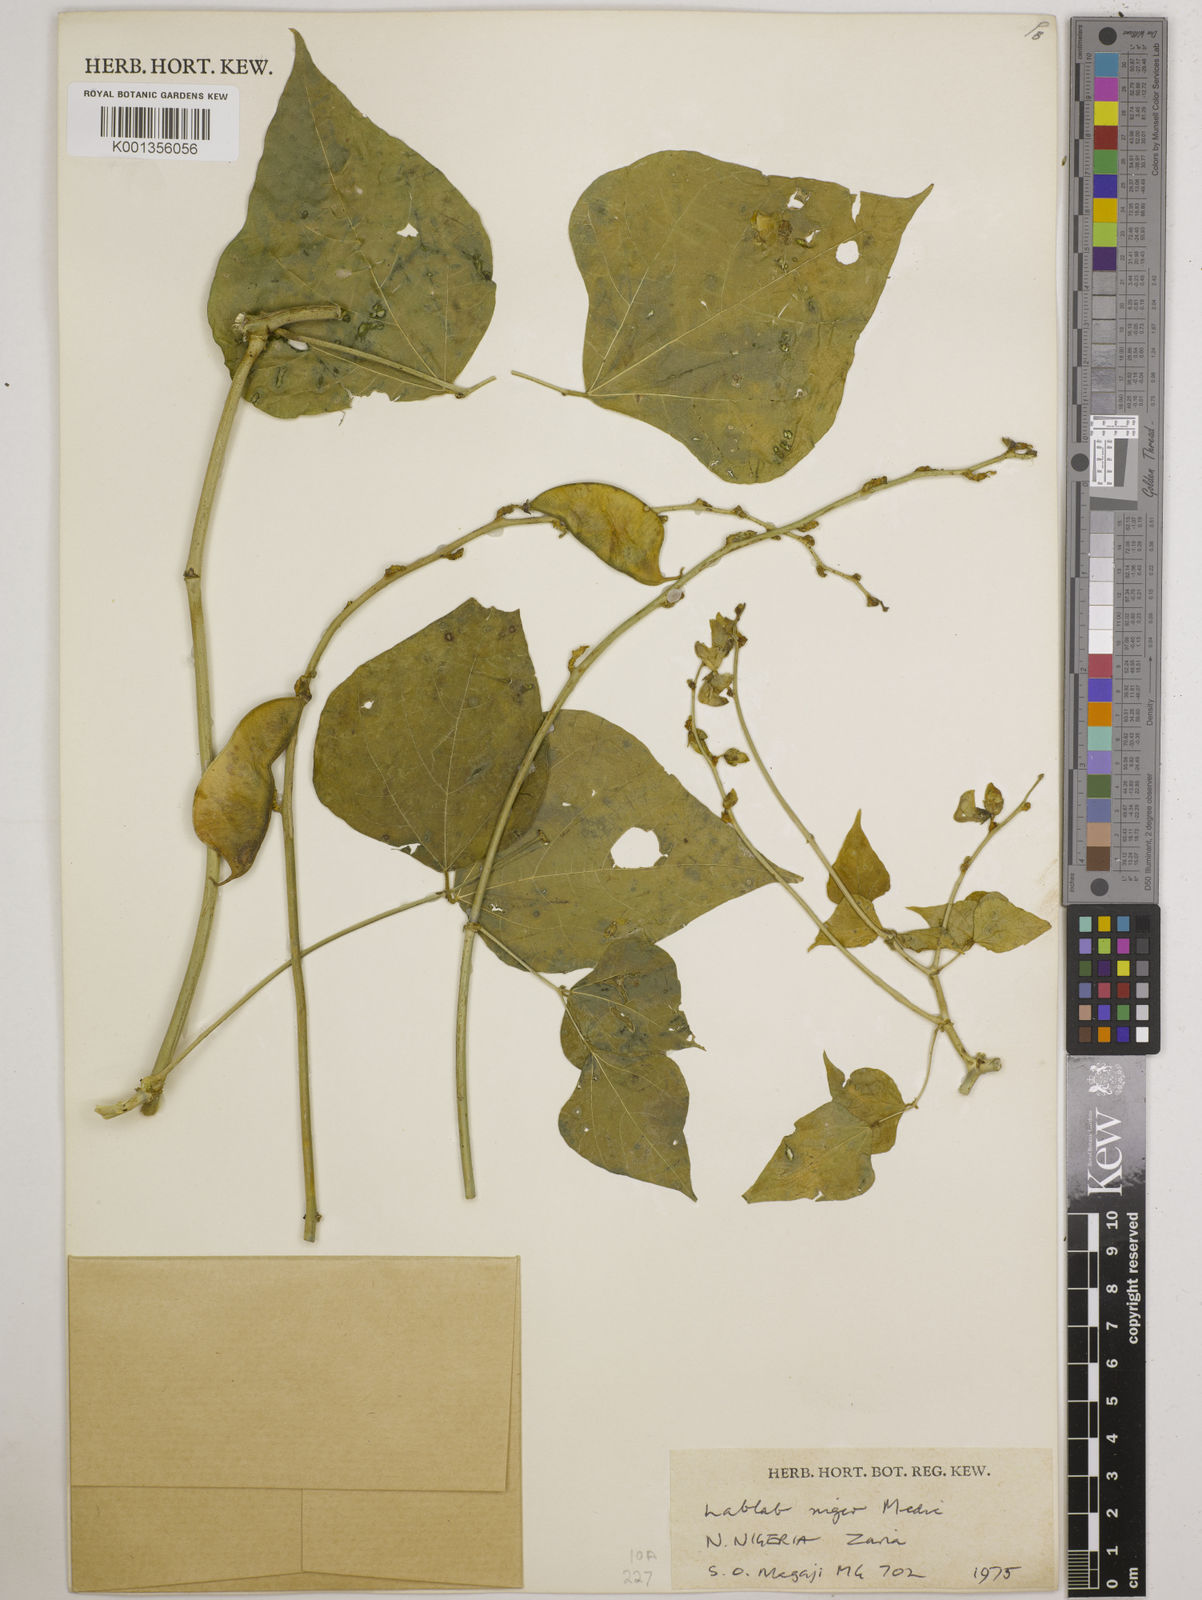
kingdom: Plantae
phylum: Tracheophyta
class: Magnoliopsida
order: Fabales
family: Fabaceae
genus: Lablab
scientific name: Lablab purpureus
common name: Lablab-bean
